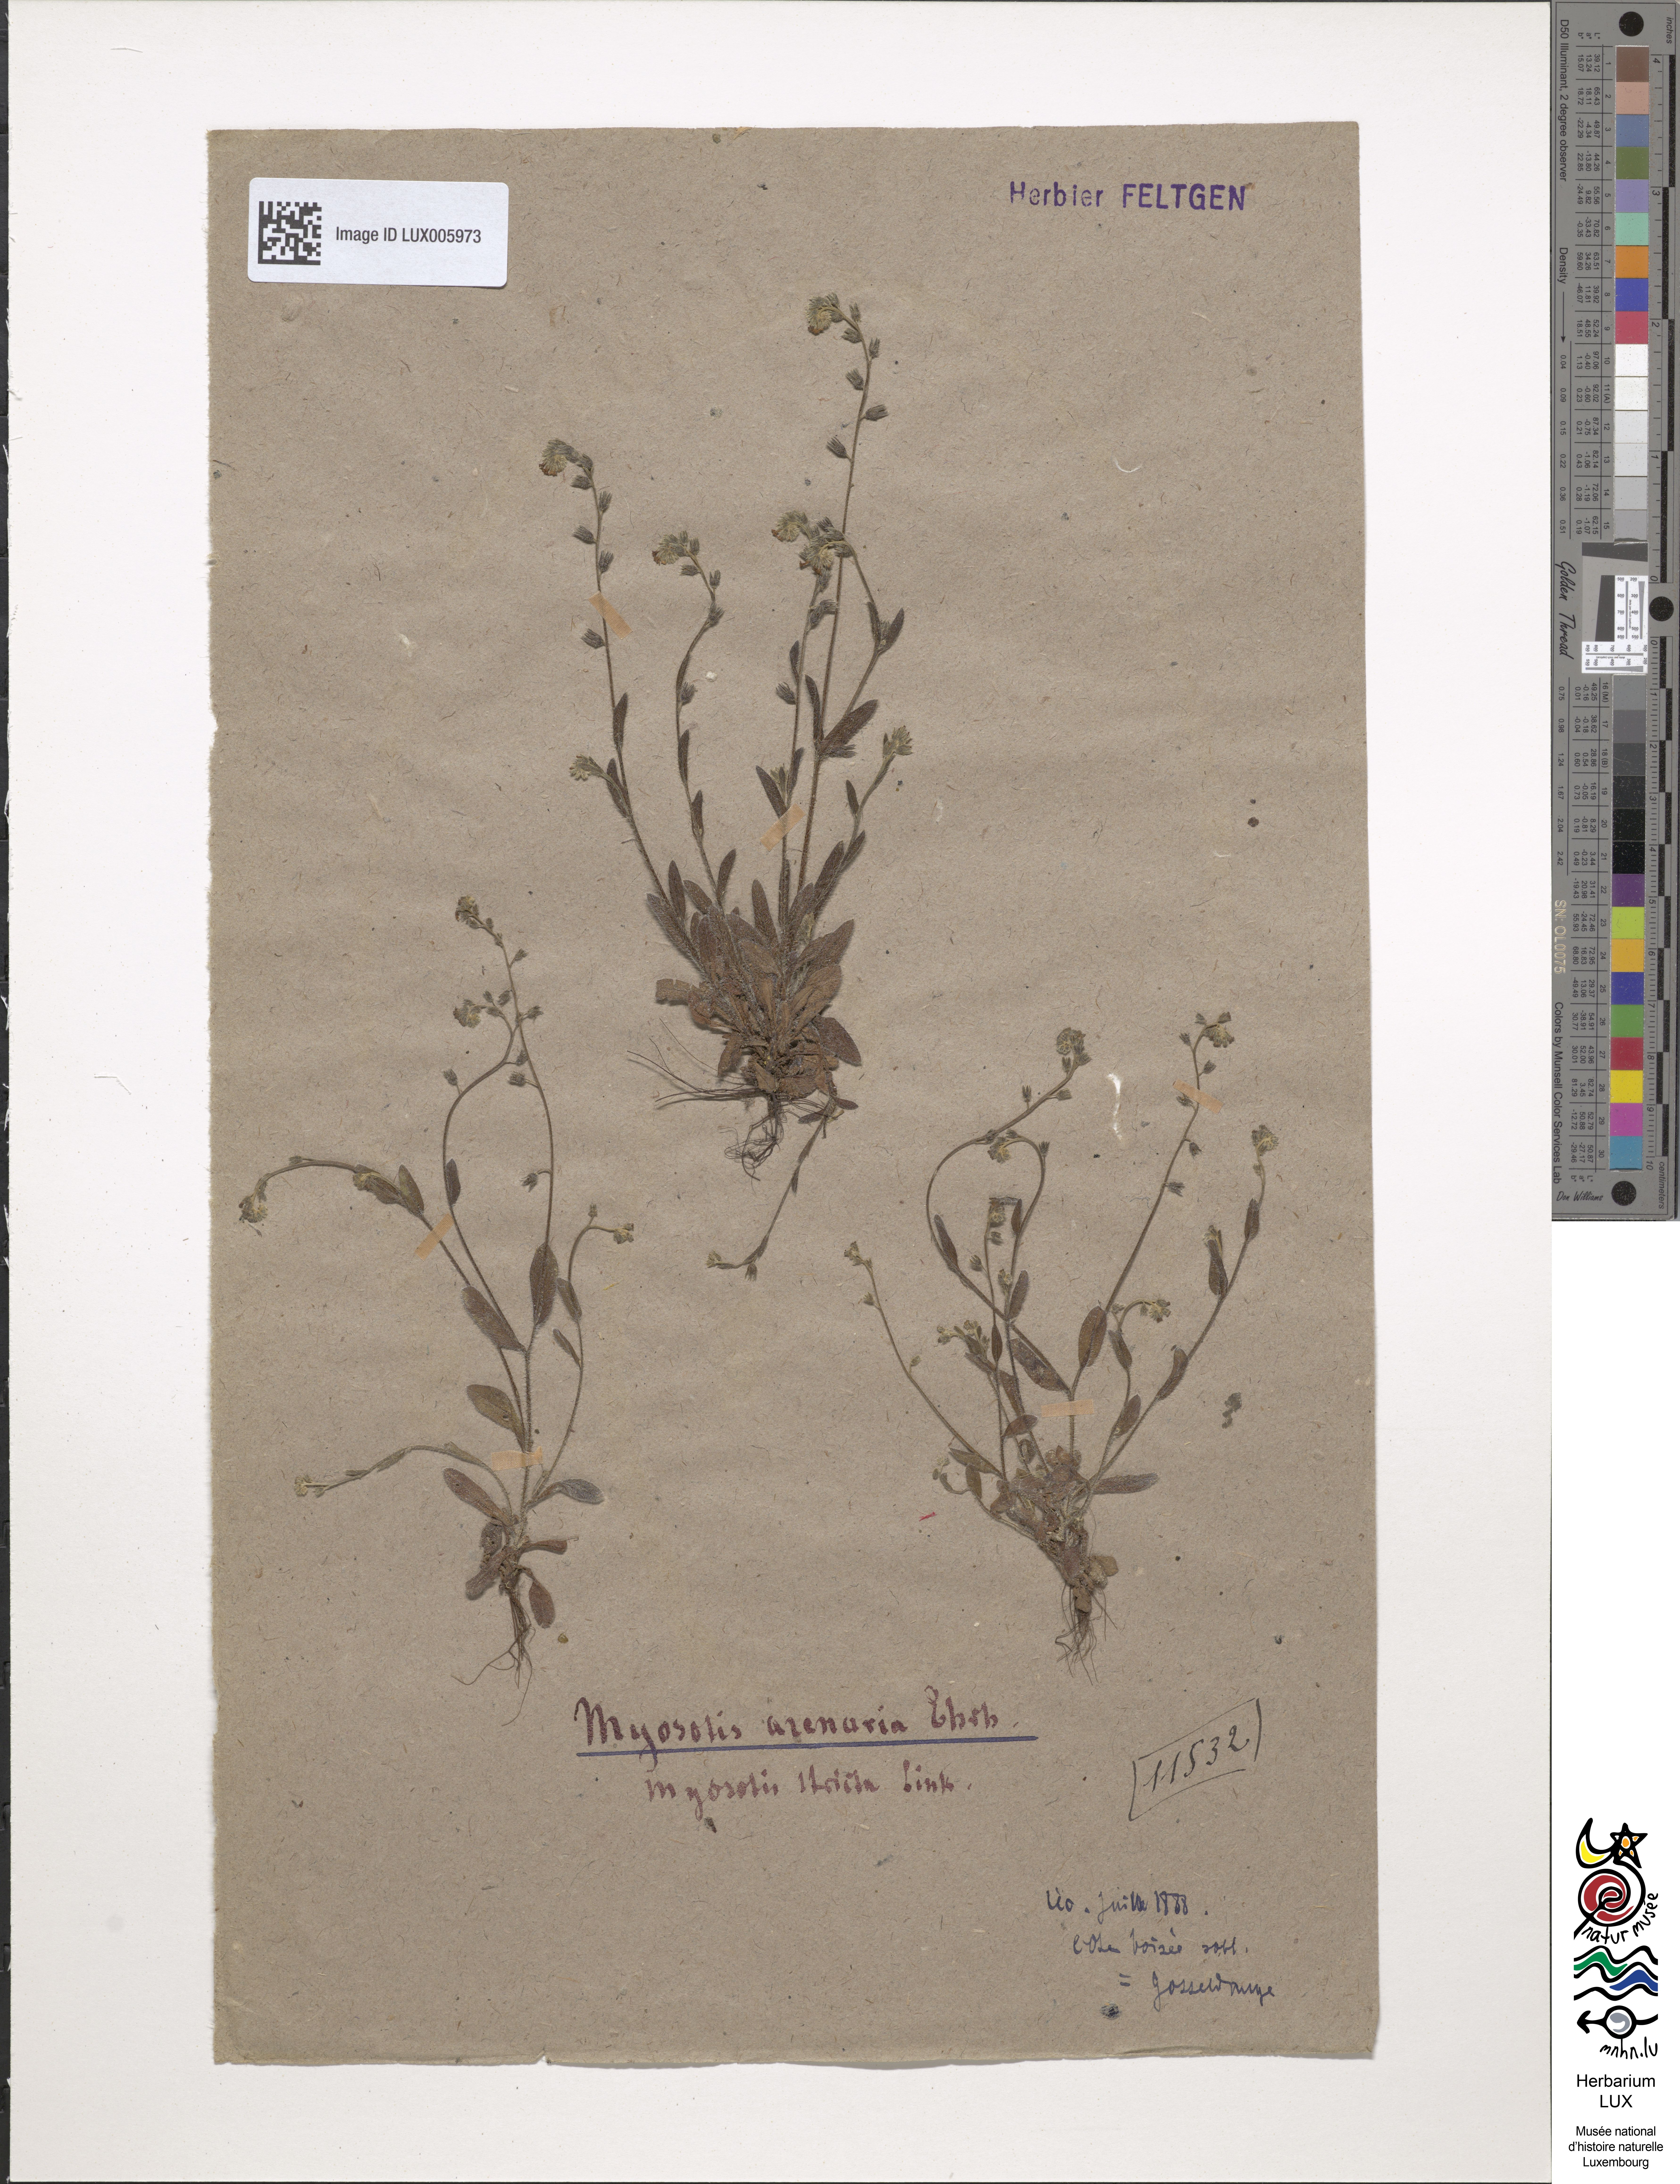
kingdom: Plantae
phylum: Tracheophyta
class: Magnoliopsida
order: Boraginales
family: Boraginaceae
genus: Myosotis
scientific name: Myosotis stricta
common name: Strict forget-me-not
